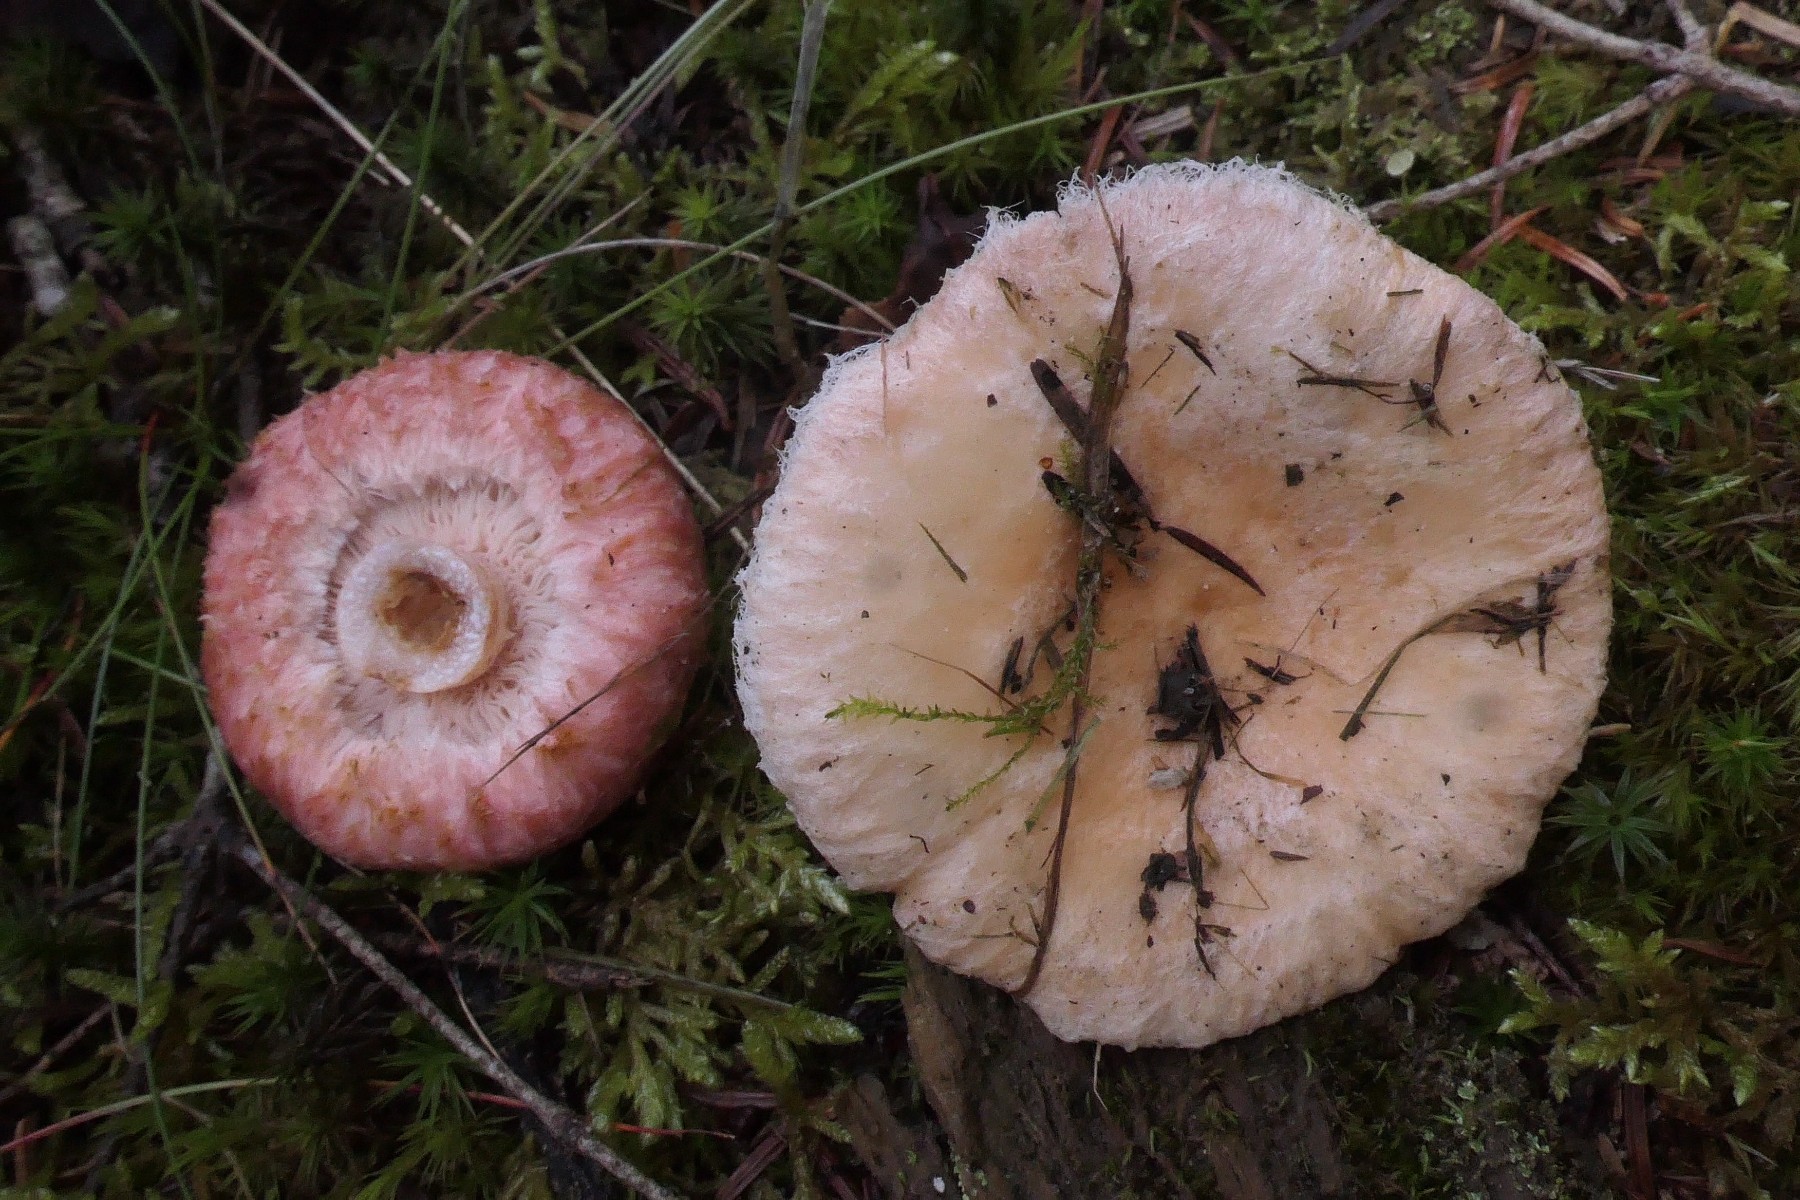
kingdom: Fungi
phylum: Basidiomycota
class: Agaricomycetes
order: Russulales
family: Russulaceae
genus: Lactarius
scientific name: Lactarius torminosus
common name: skægget mælkehat
